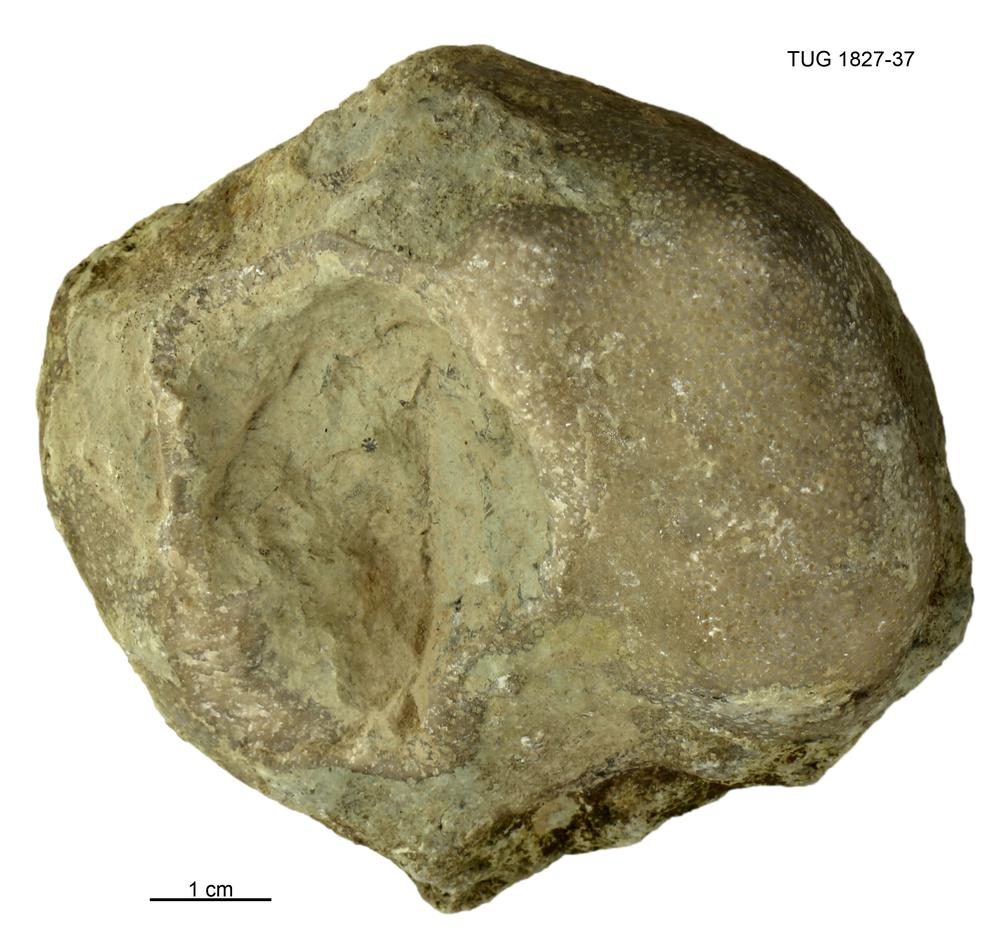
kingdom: Animalia
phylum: Cnidaria
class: Anthozoa
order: Heliolitina
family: Heliolitidae
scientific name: Heliolitidae
